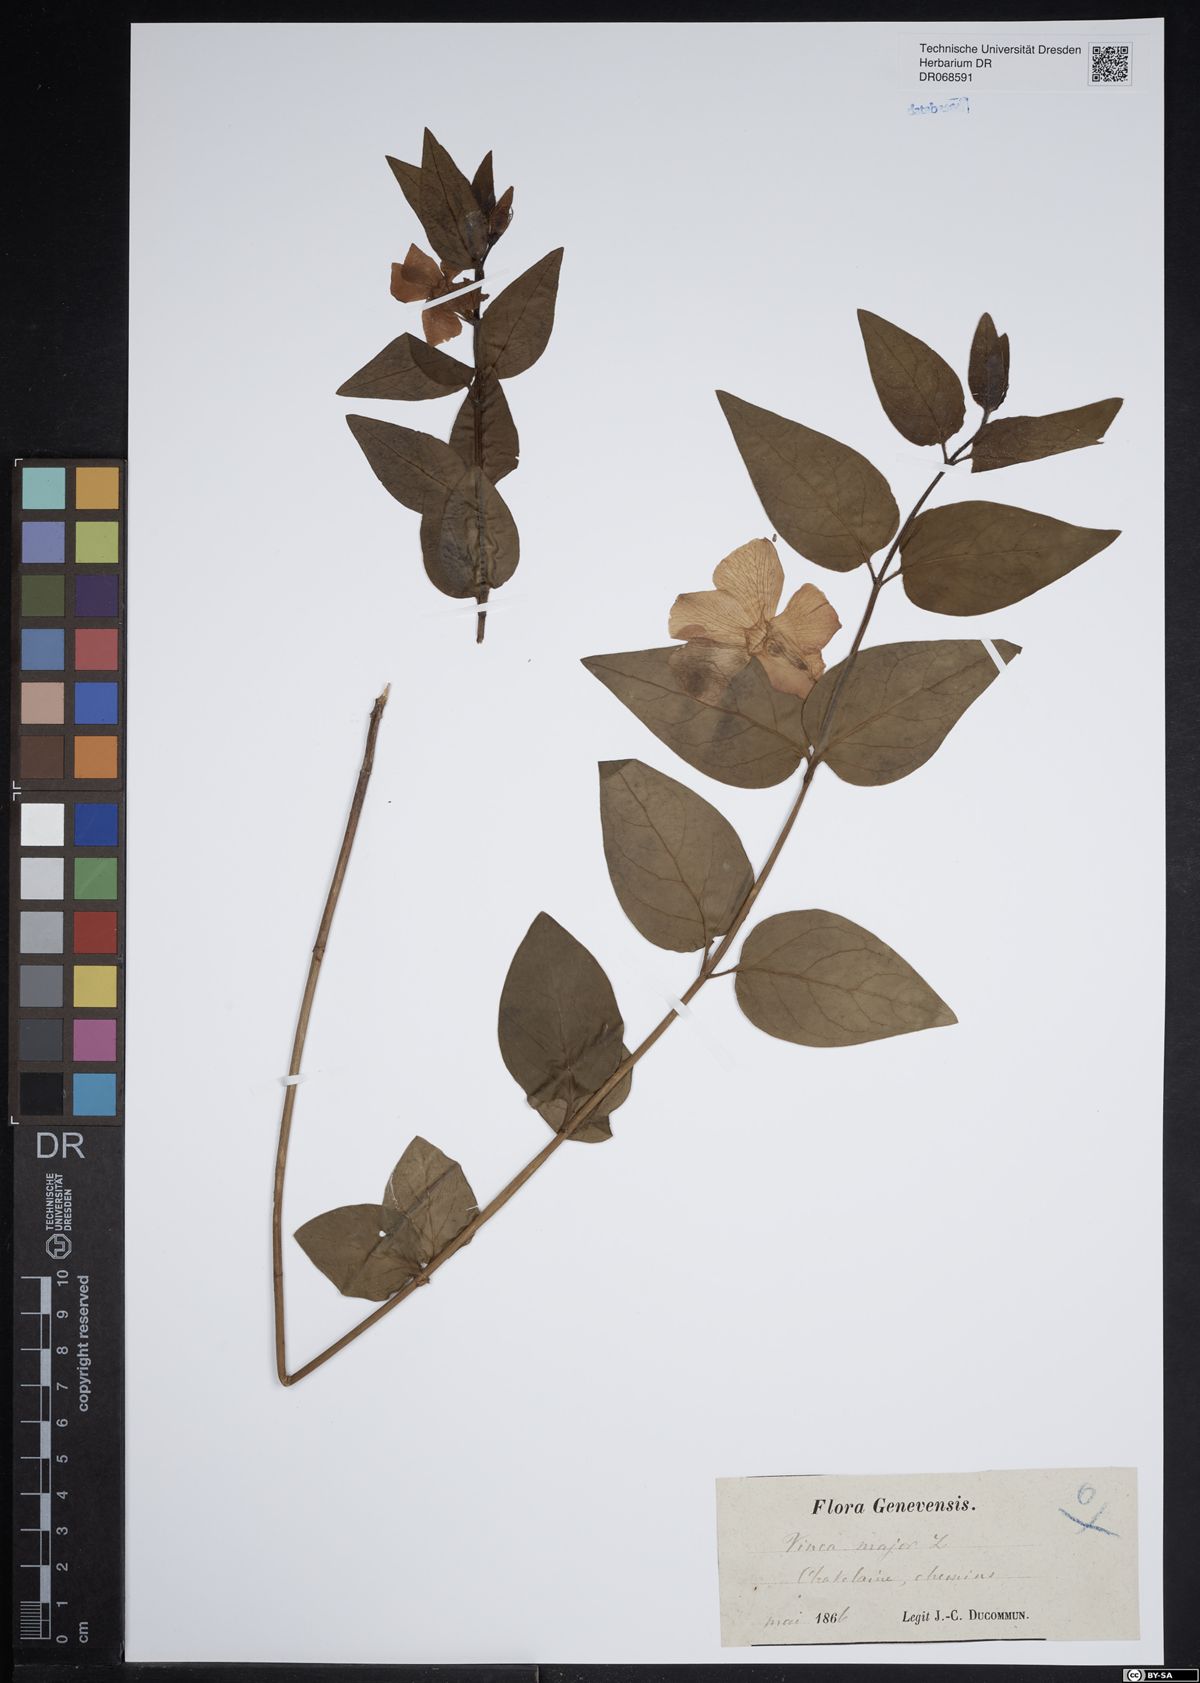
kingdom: Plantae
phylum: Tracheophyta
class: Magnoliopsida
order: Gentianales
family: Apocynaceae
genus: Vinca
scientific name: Vinca major
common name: Greater periwinkle
